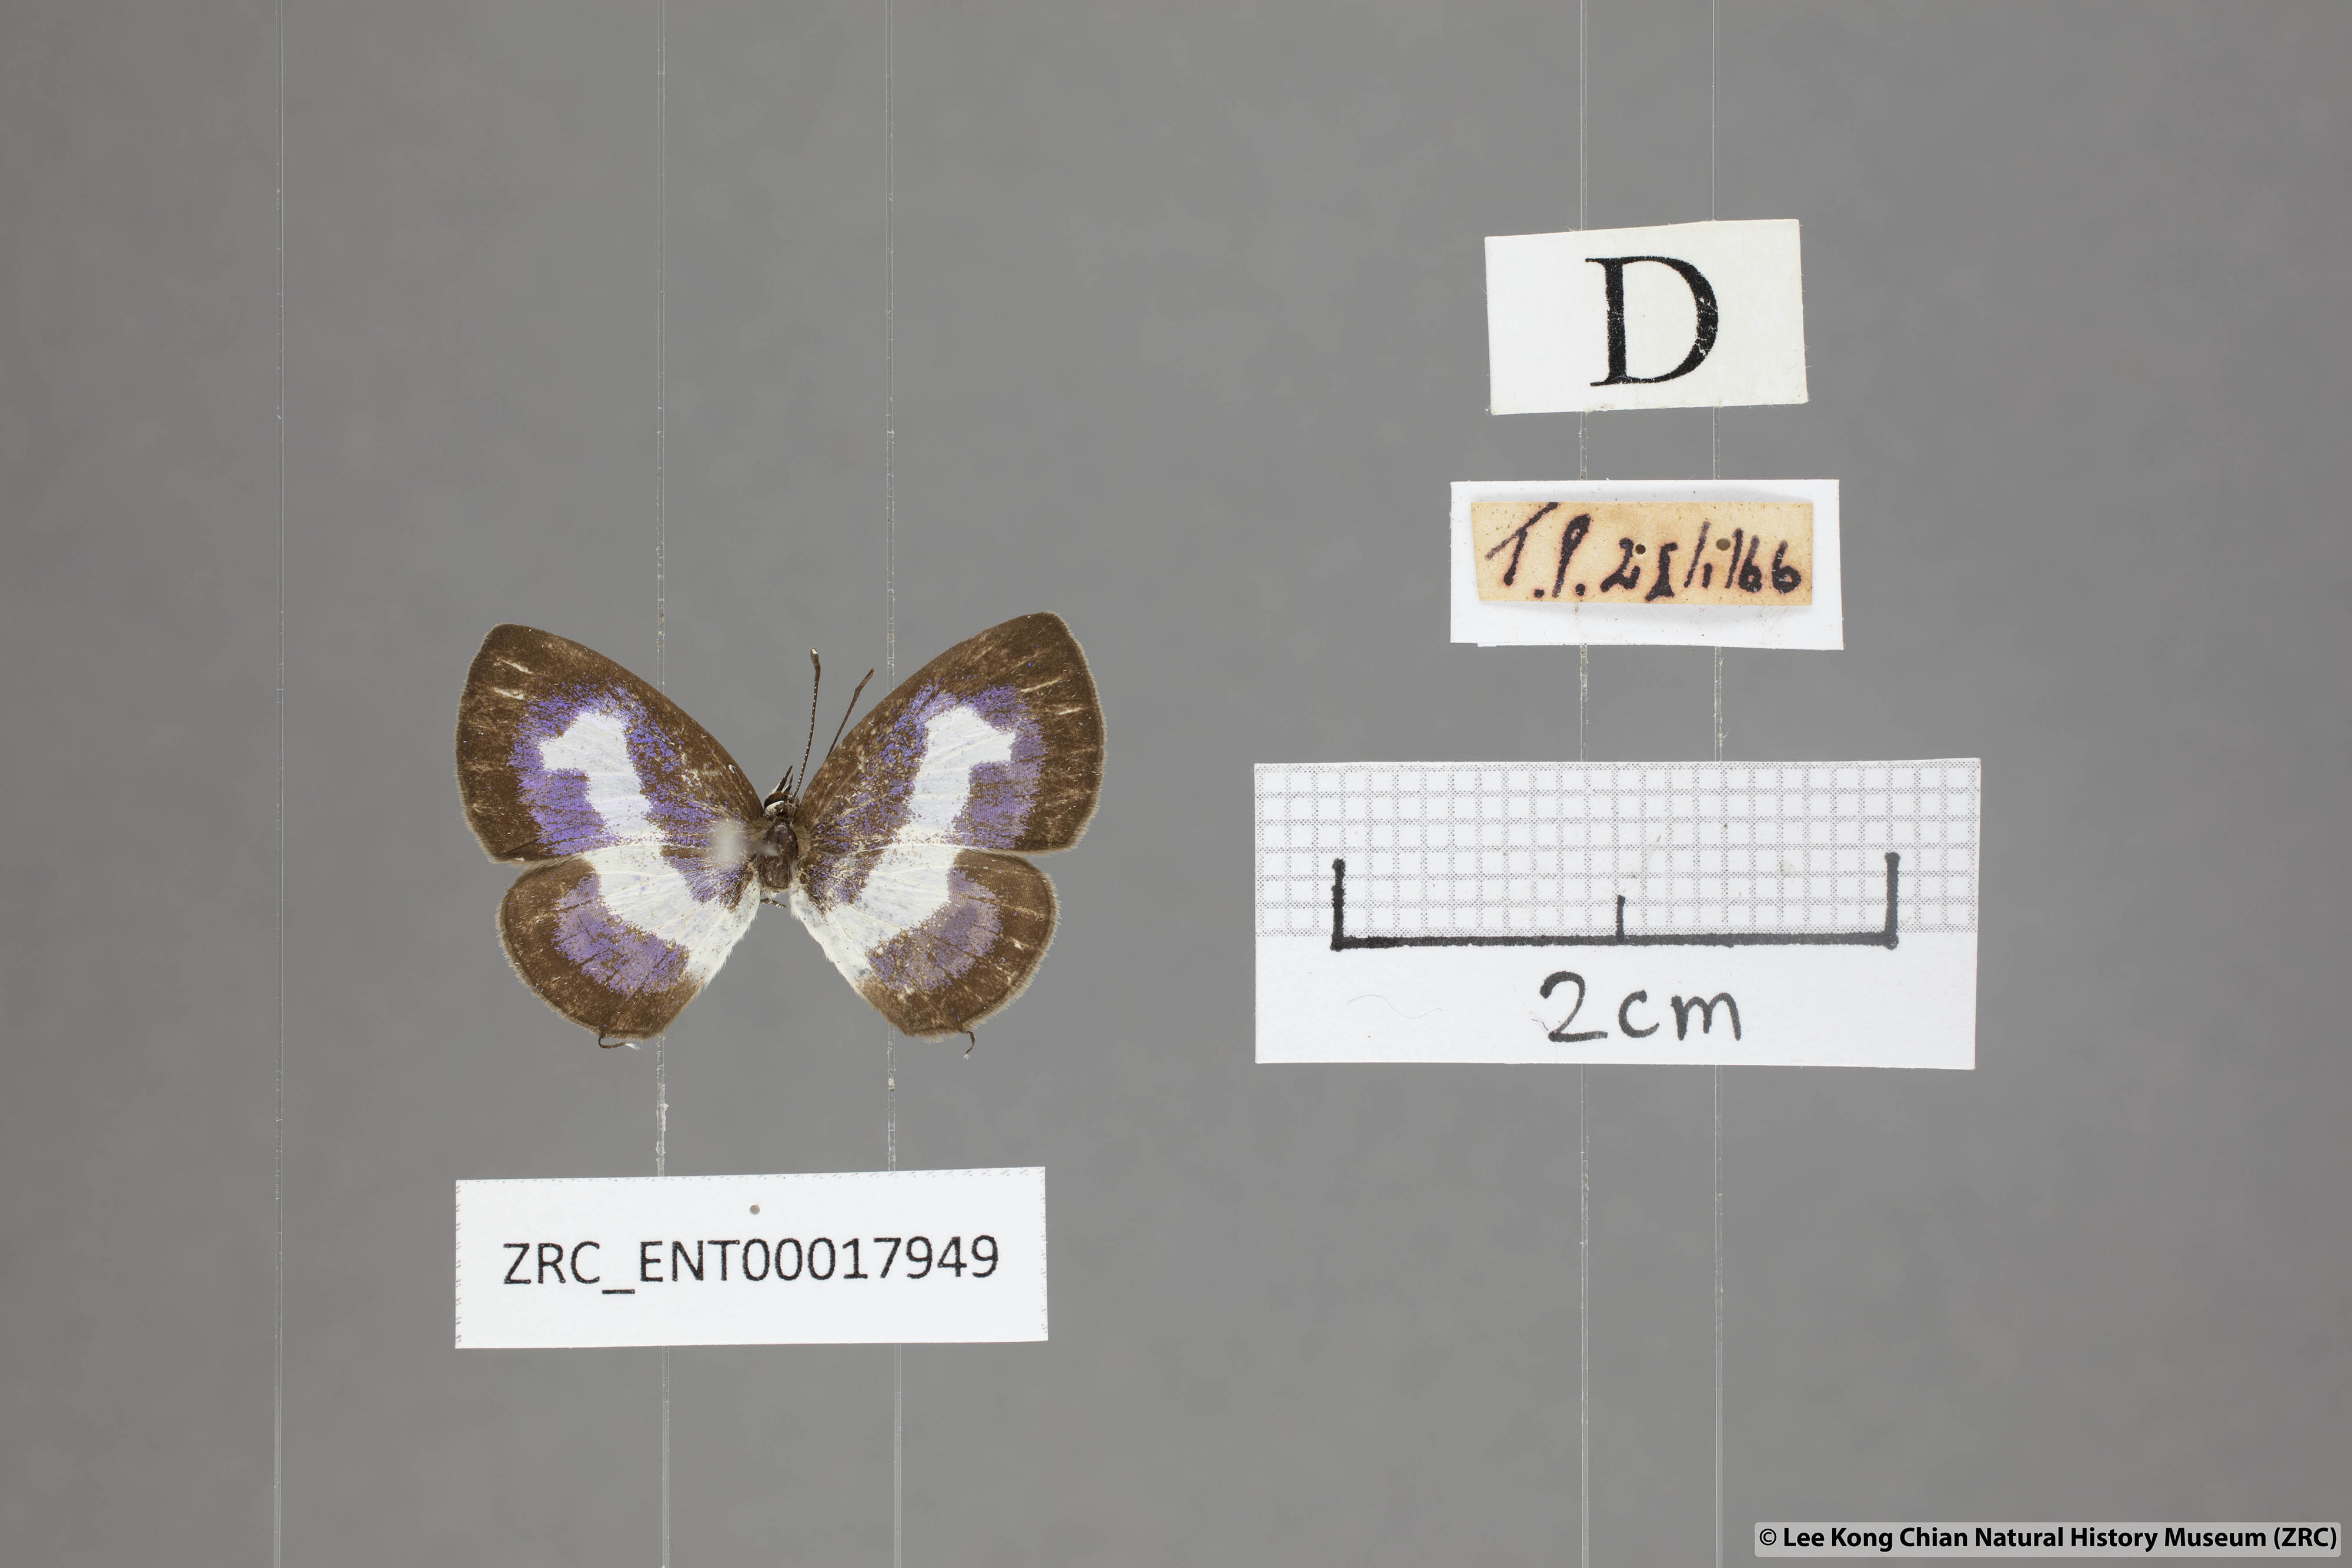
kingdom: Animalia
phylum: Arthropoda
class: Insecta
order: Lepidoptera
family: Lycaenidae
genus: Discolampa
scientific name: Discolampa ethion
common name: Banded blue pierrot
